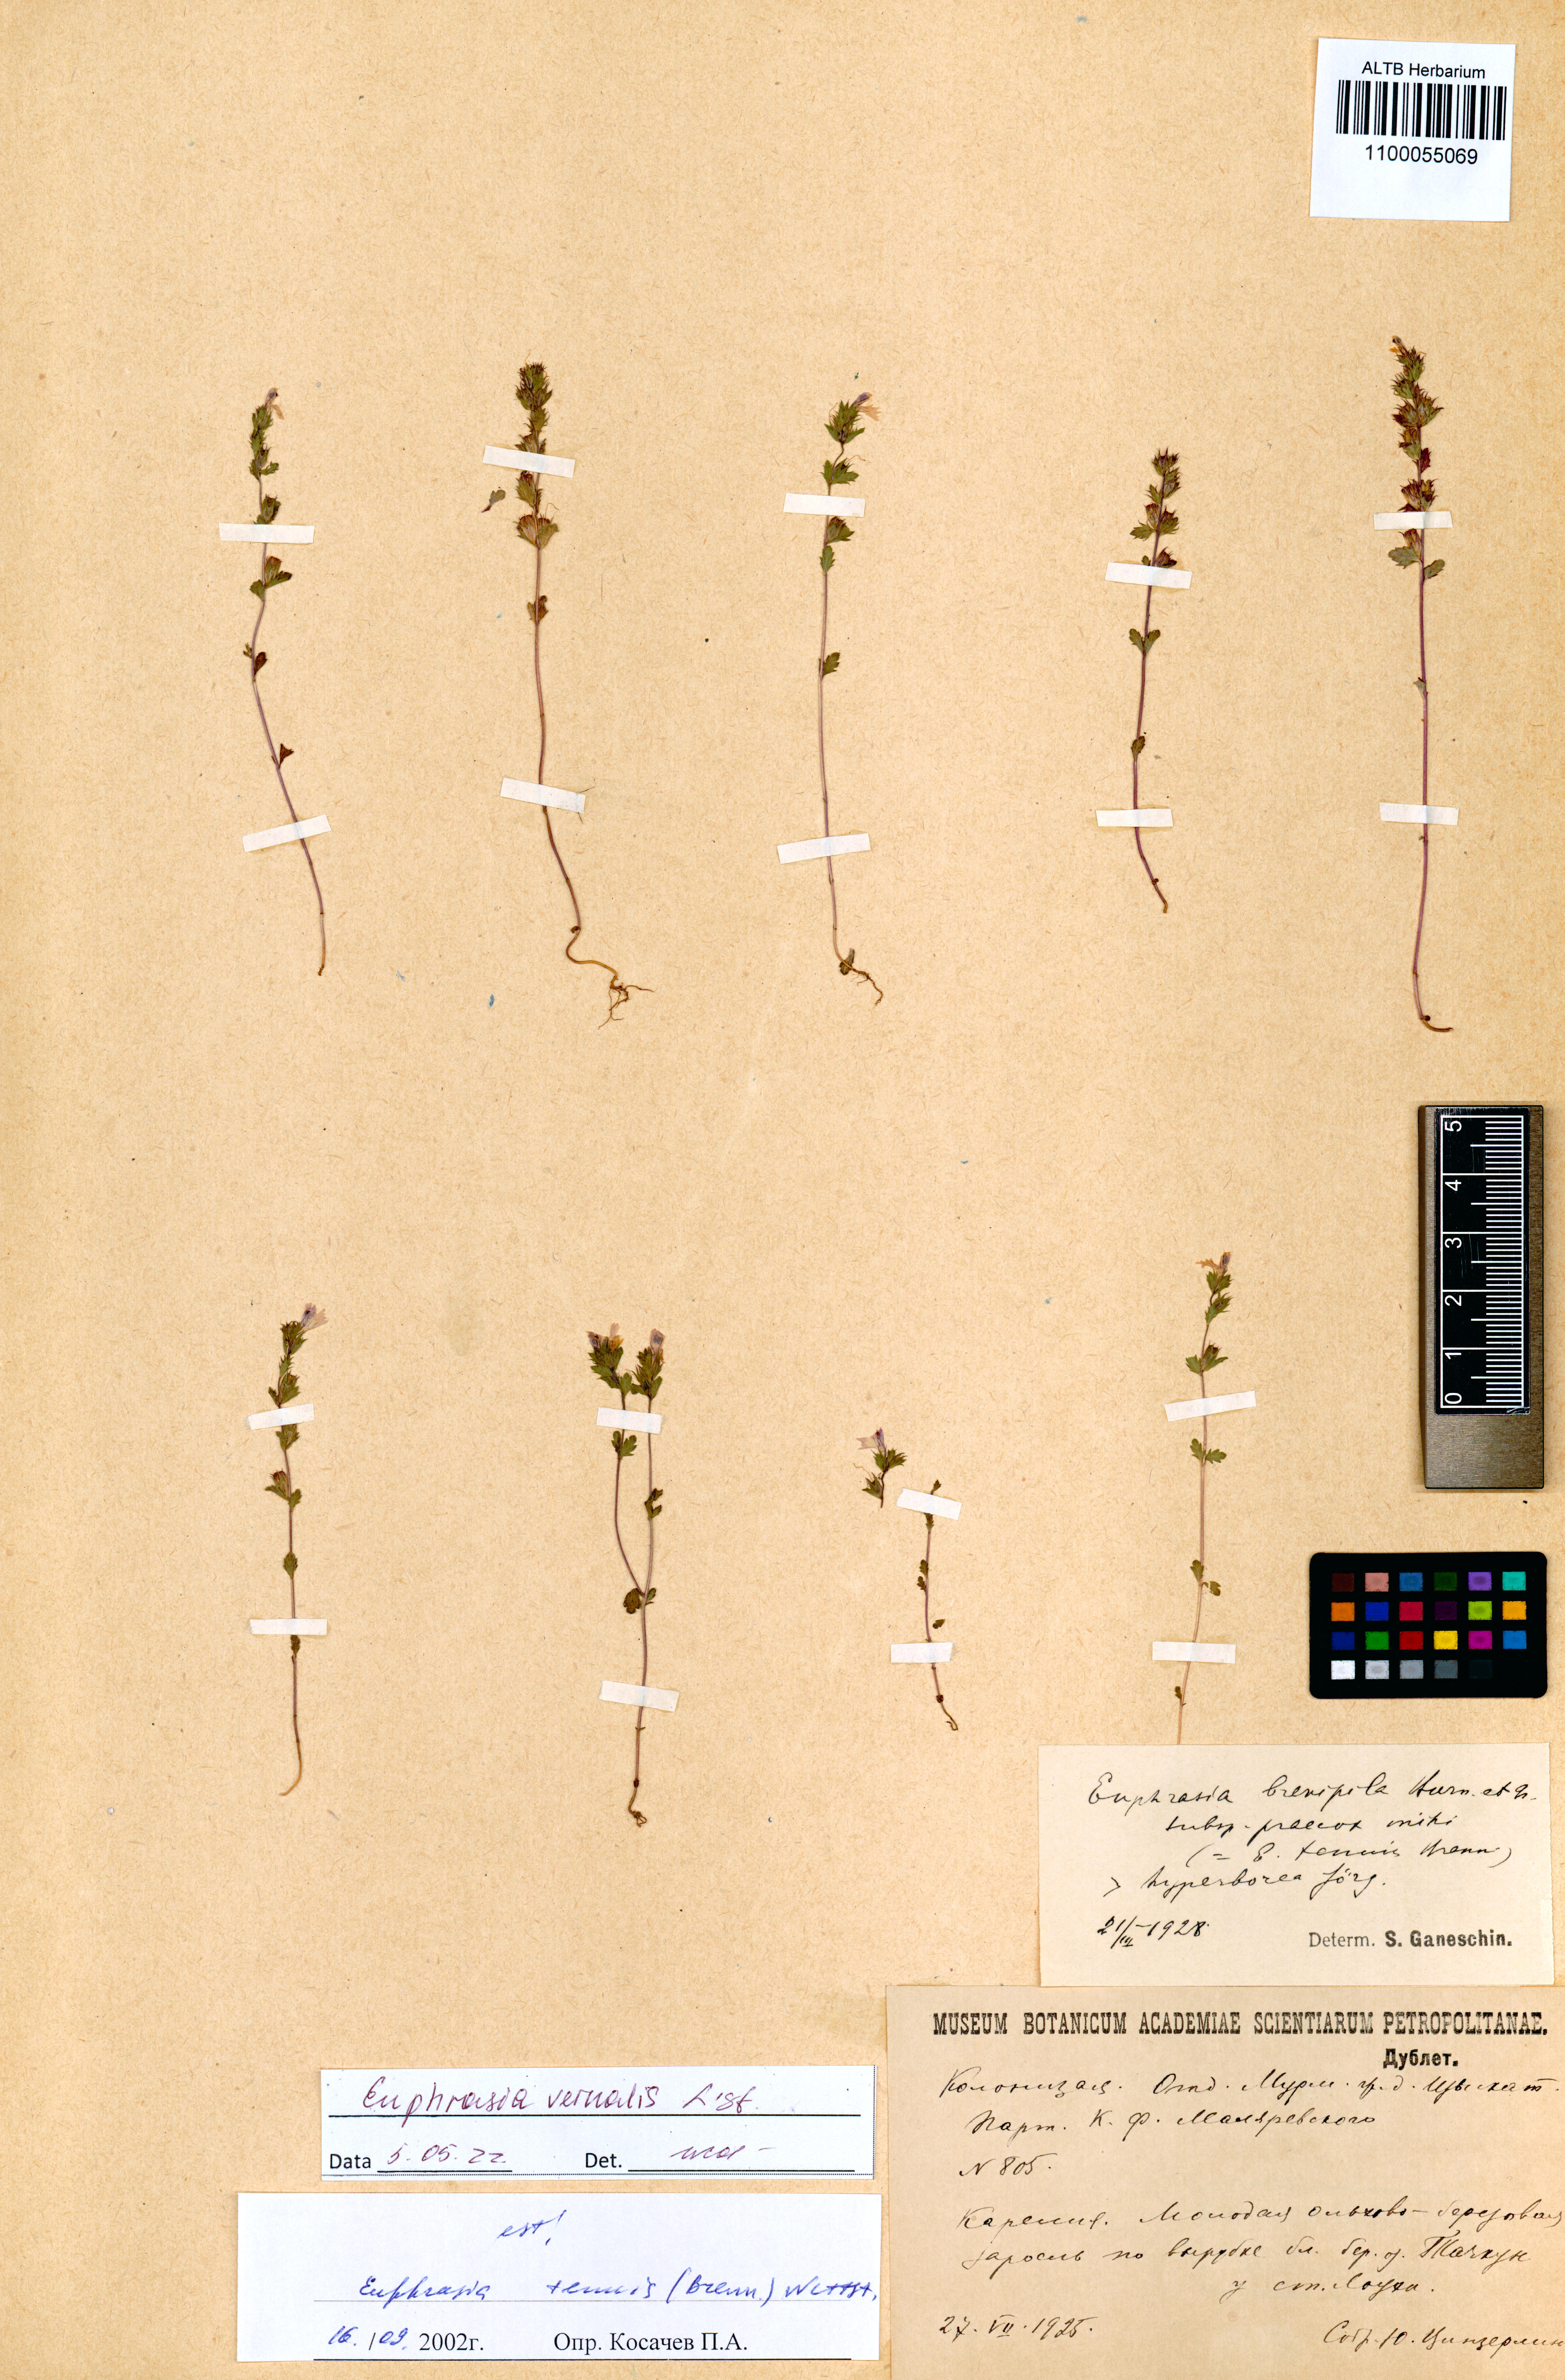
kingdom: Plantae
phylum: Tracheophyta
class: Magnoliopsida
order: Lamiales
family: Orobanchaceae
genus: Euphrasia
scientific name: Euphrasia vernalis
